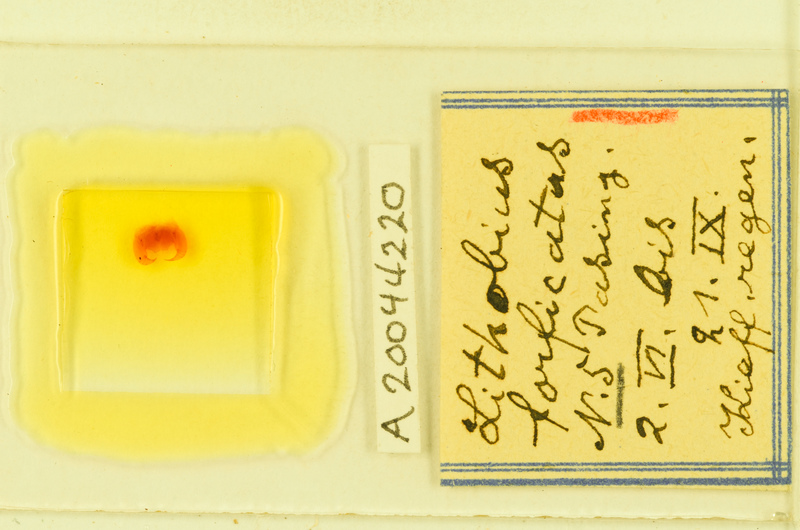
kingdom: Animalia
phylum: Arthropoda
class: Chilopoda
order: Lithobiomorpha
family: Lithobiidae
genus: Lithobius
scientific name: Lithobius forficatus
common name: Centipede
